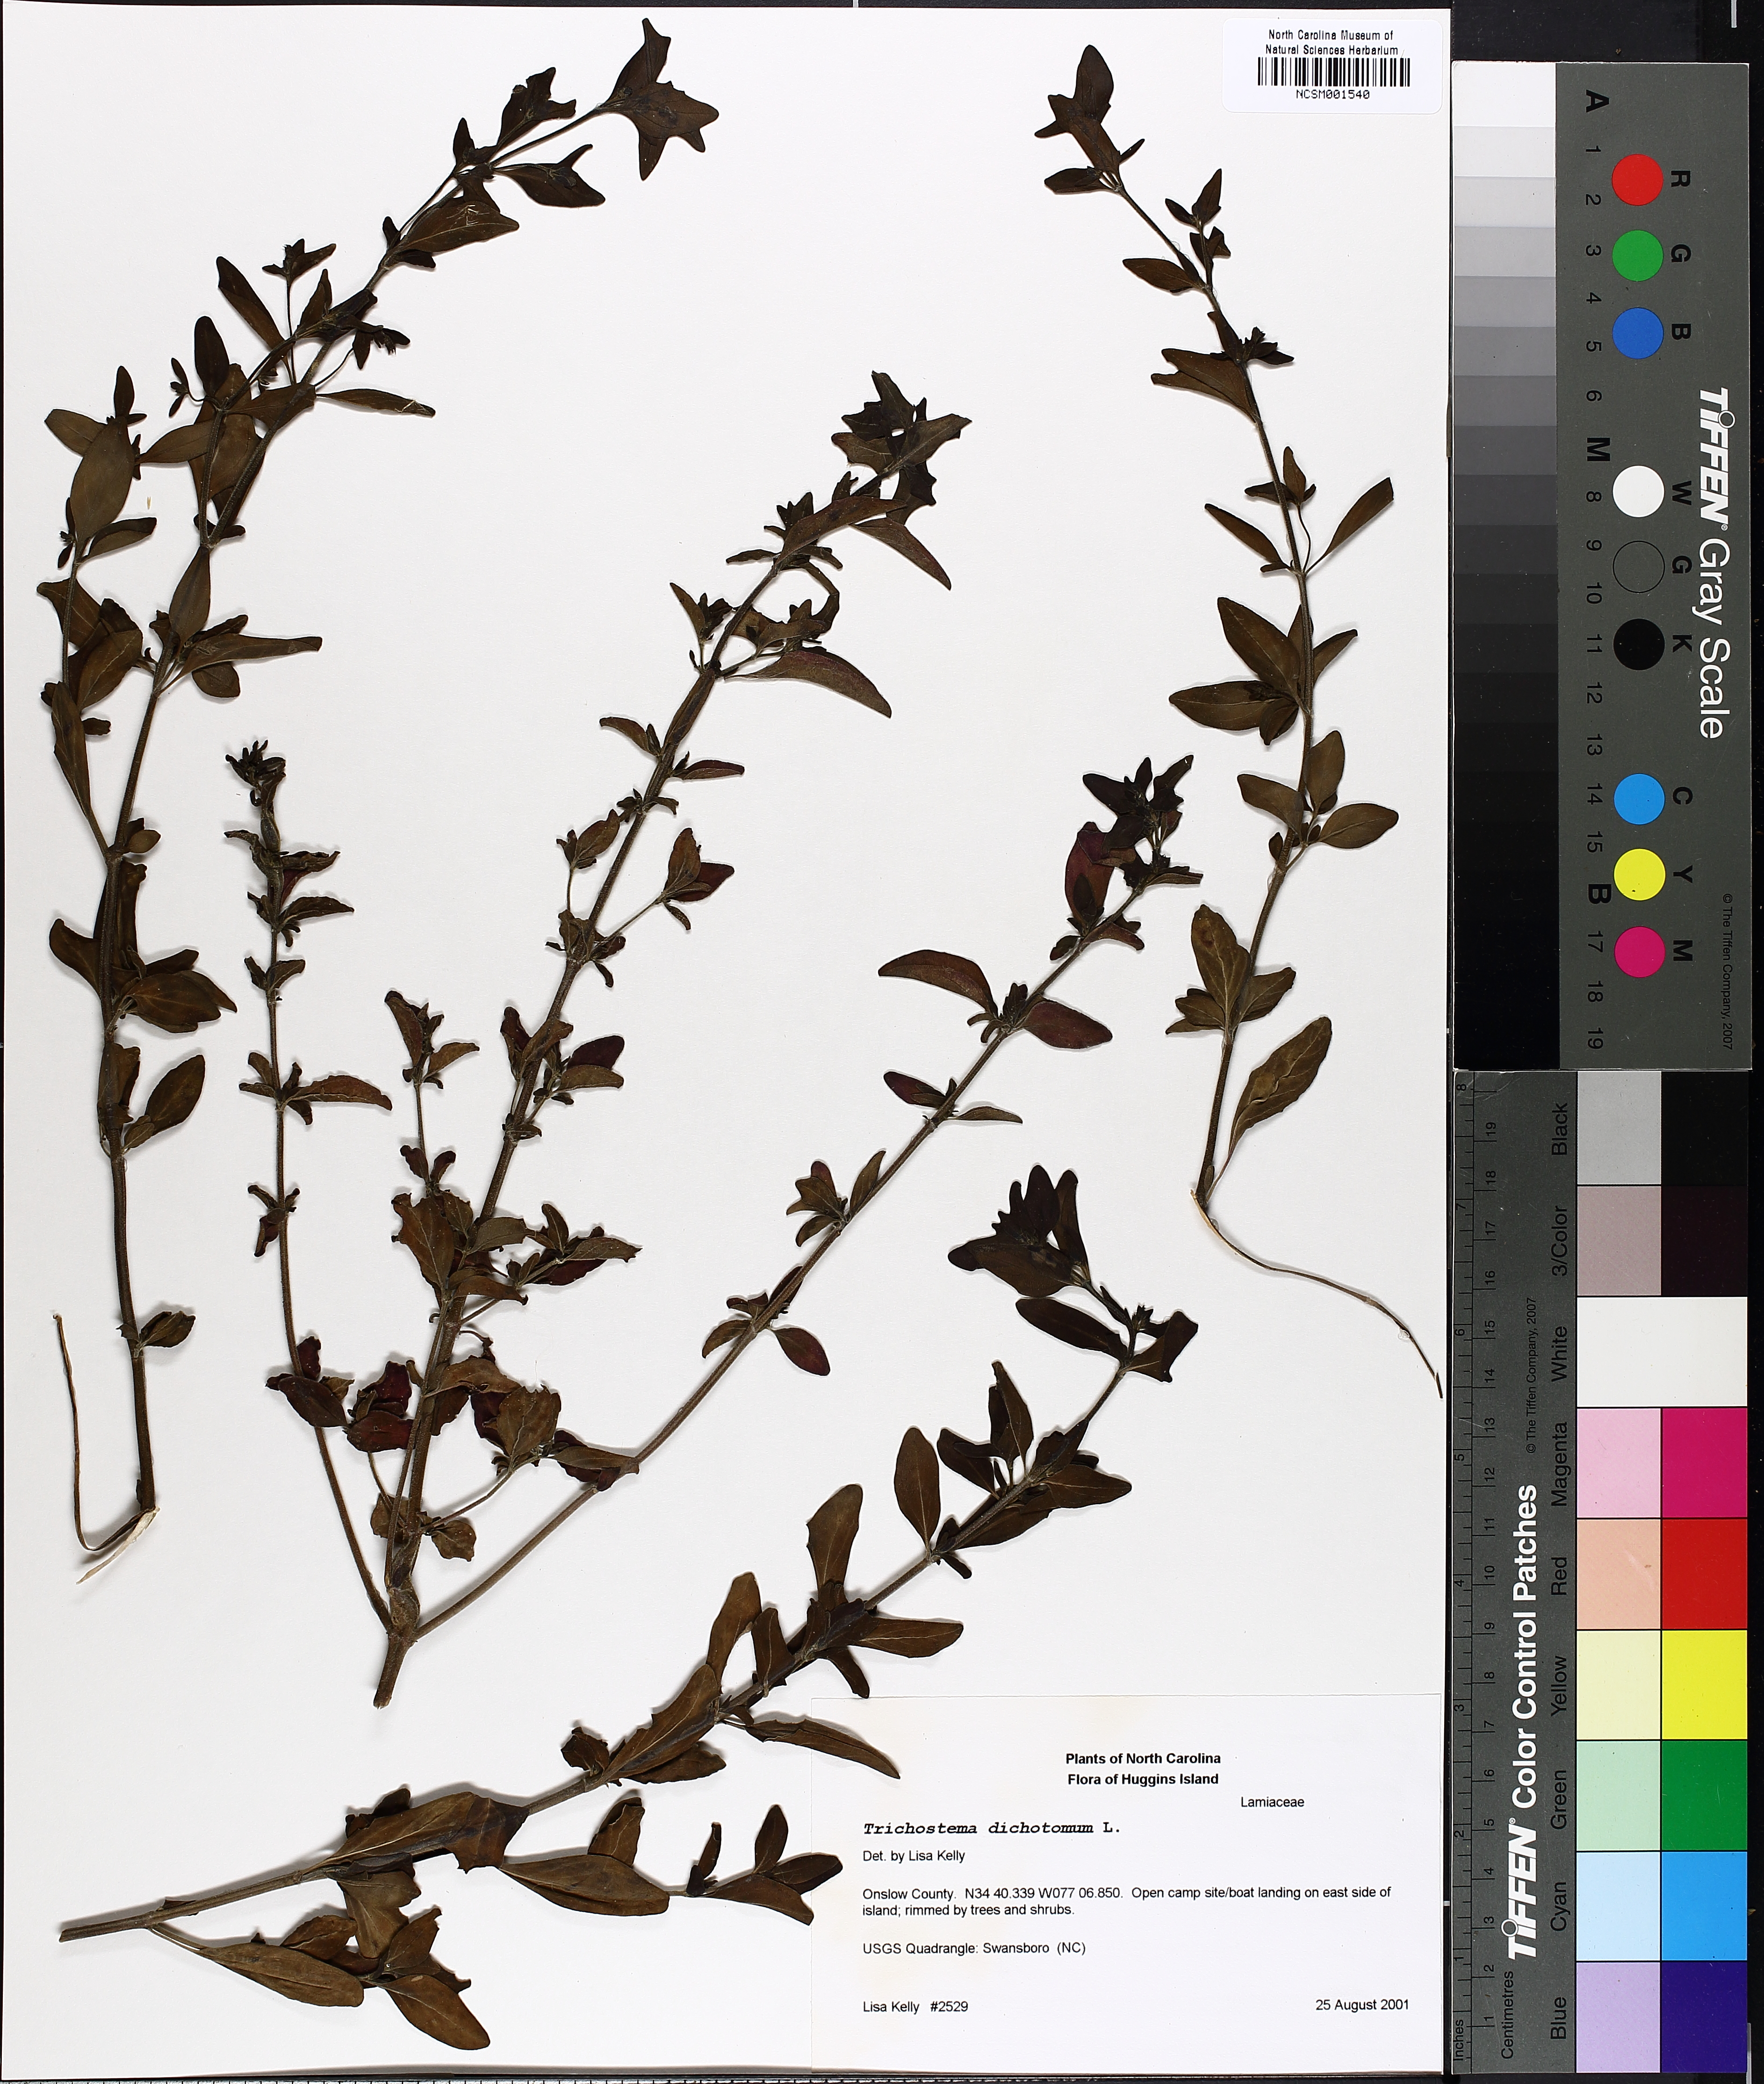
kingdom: Plantae
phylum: Tracheophyta
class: Magnoliopsida
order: Lamiales
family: Lamiaceae
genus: Trichostema
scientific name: Trichostema dichotomum
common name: Bastard pennyroyal
